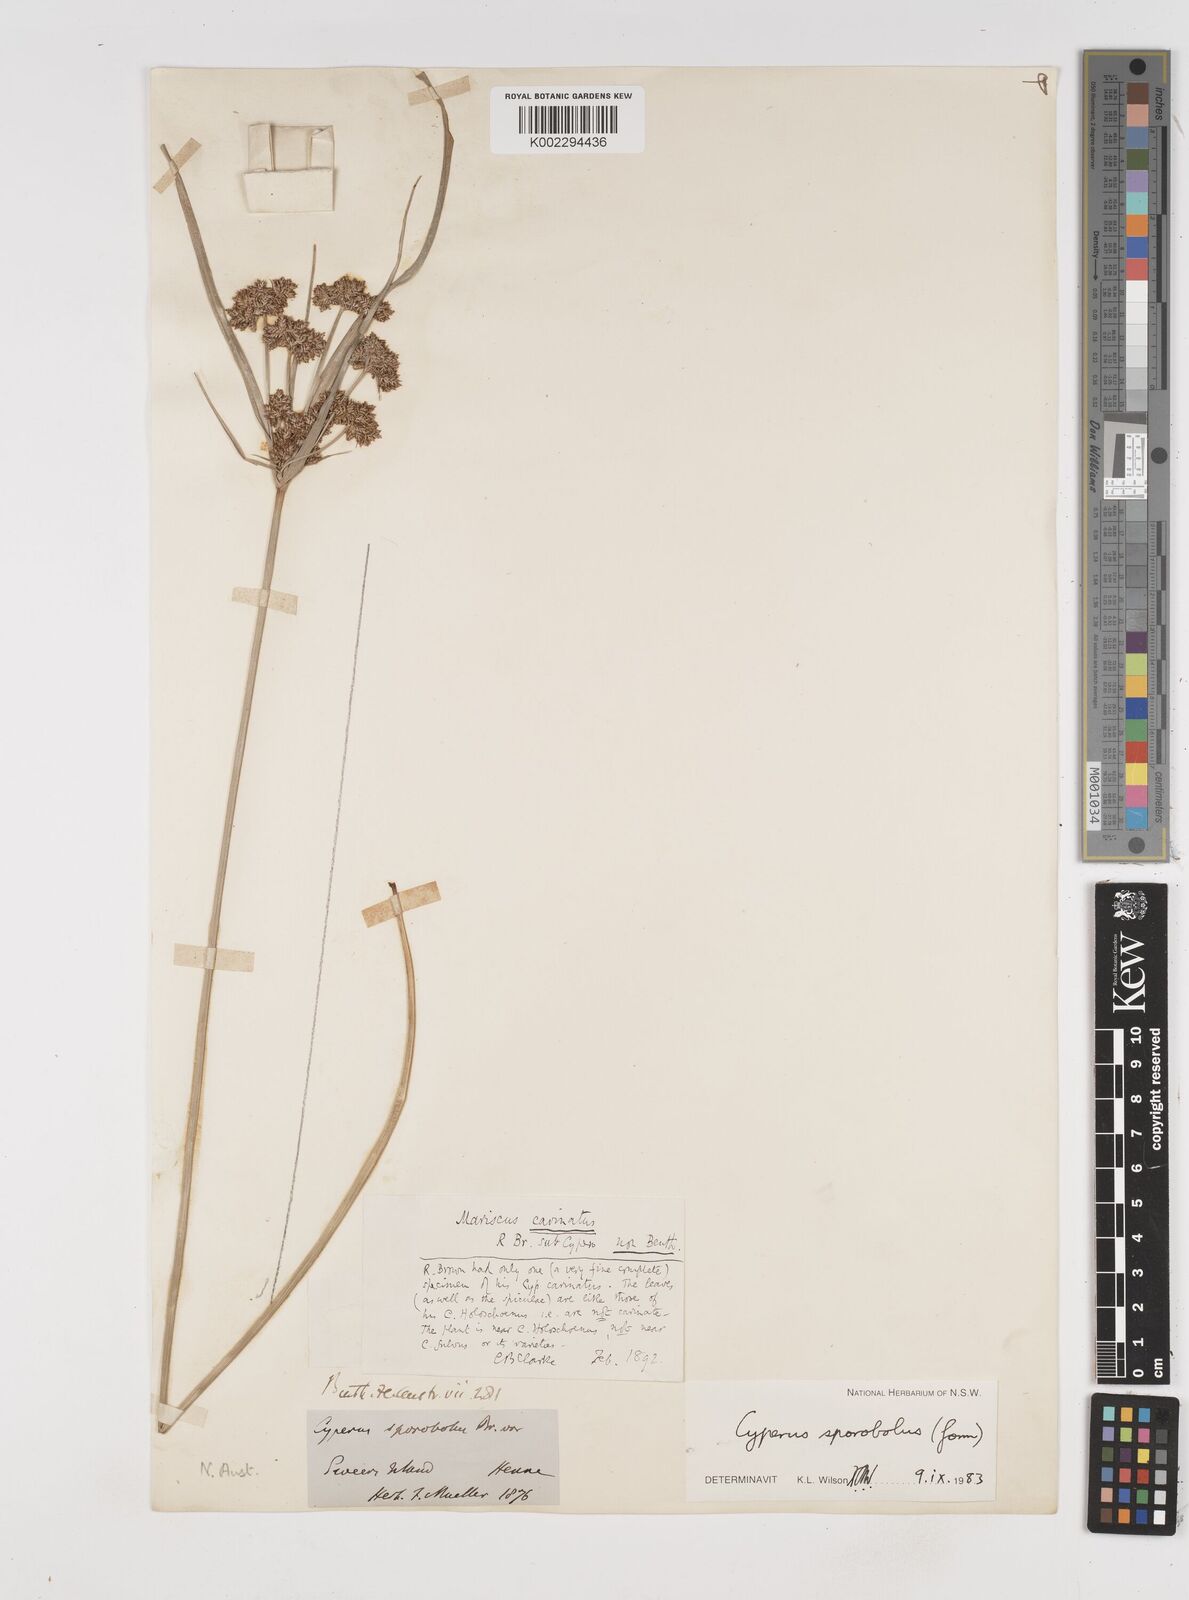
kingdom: Plantae
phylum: Tracheophyta
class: Liliopsida
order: Poales
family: Cyperaceae
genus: Cyperus
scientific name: Cyperus sporobolus
